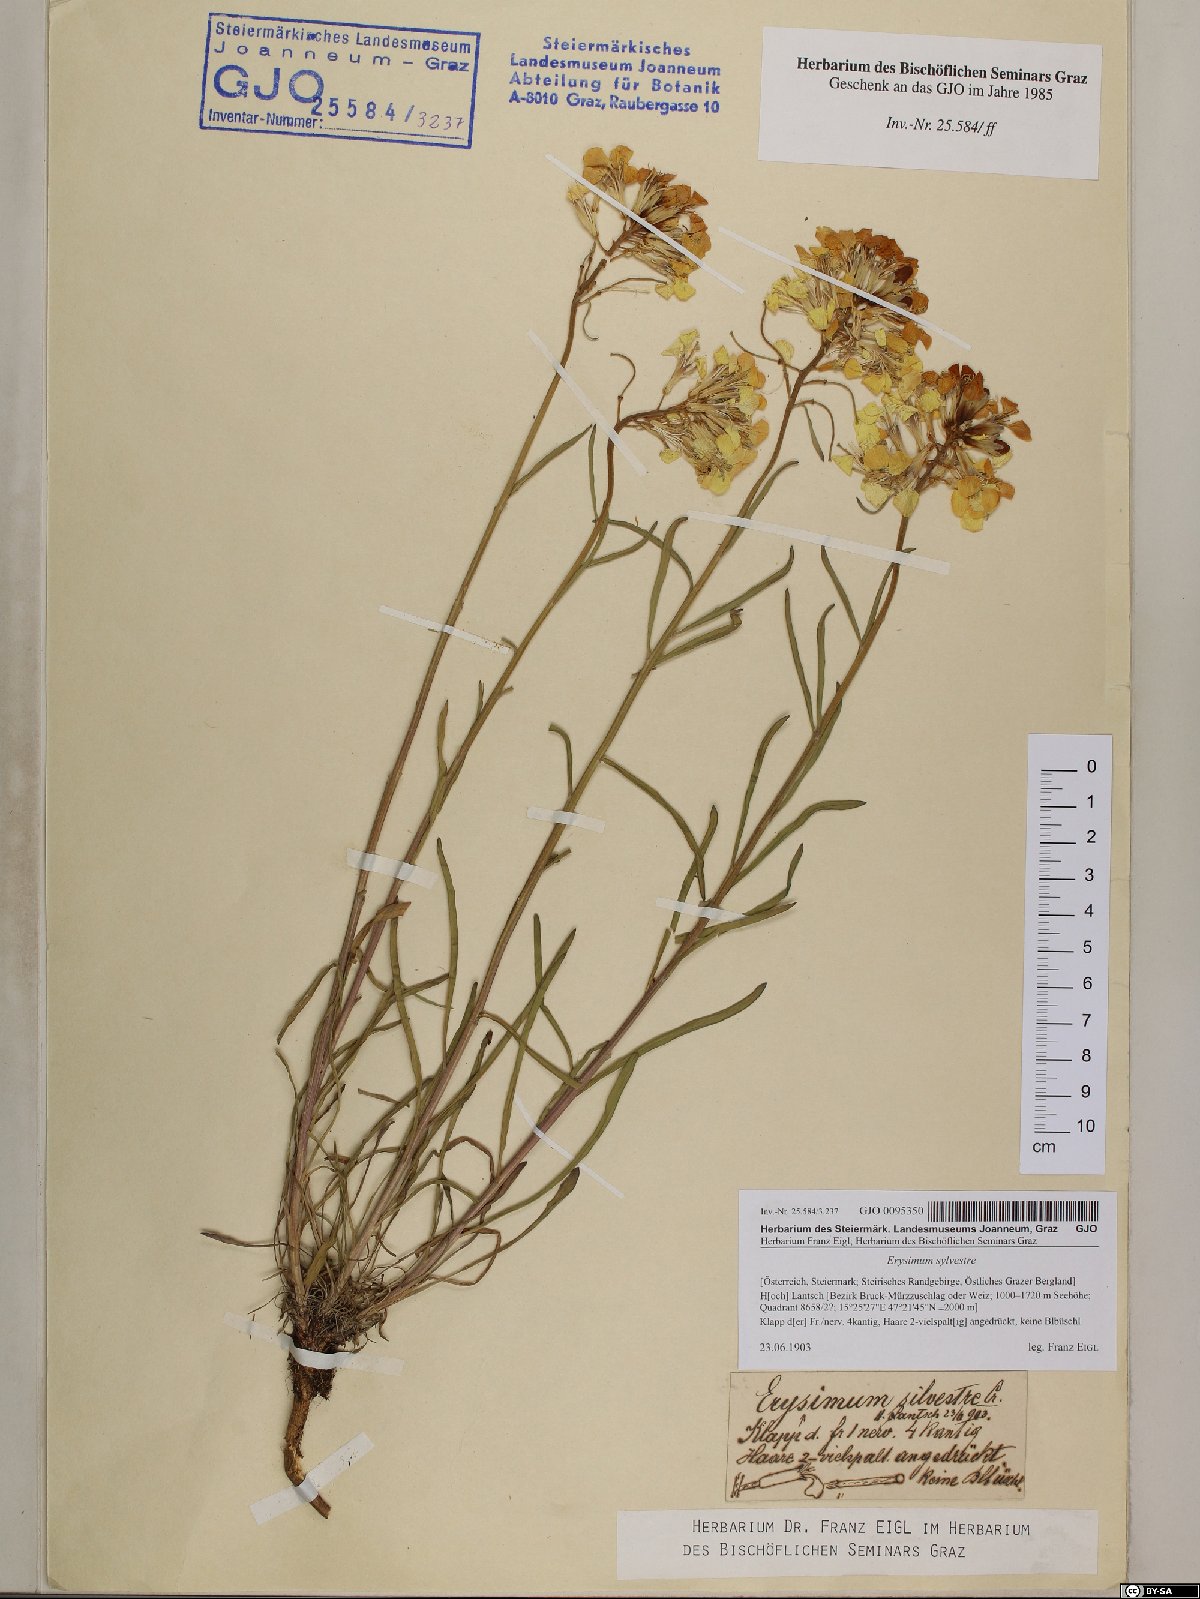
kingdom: Plantae
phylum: Tracheophyta
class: Magnoliopsida
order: Brassicales
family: Brassicaceae
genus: Erysimum
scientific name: Erysimum sylvestre
